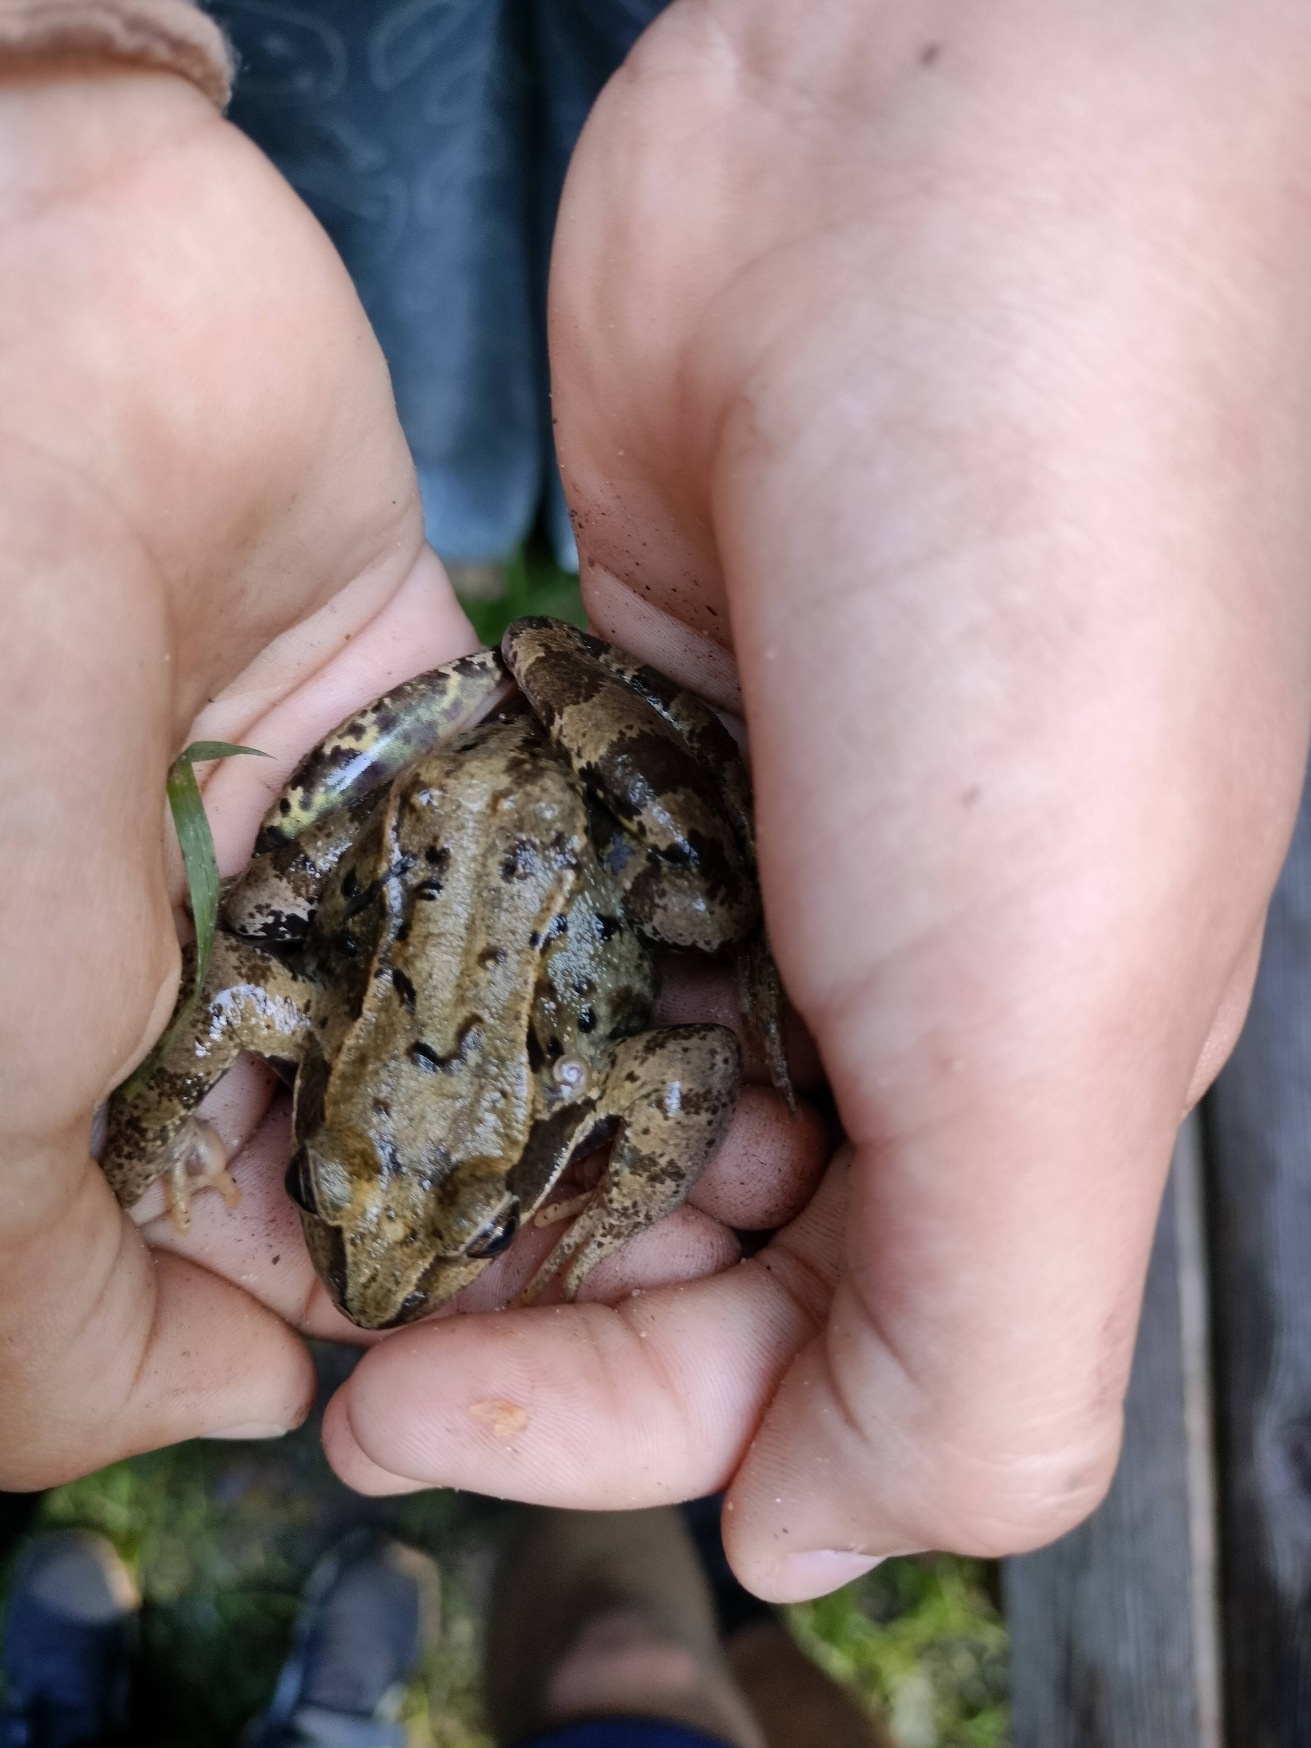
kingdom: Animalia
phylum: Chordata
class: Amphibia
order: Anura
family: Ranidae
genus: Rana
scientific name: Rana temporaria
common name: Butsnudet frø
